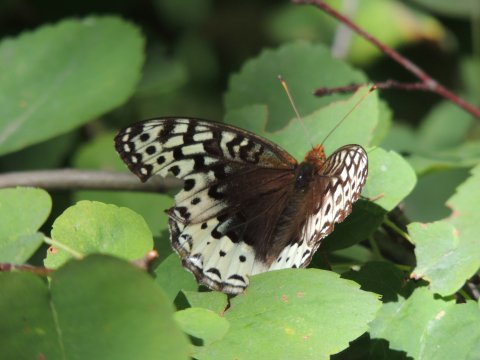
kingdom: Animalia
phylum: Arthropoda
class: Insecta
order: Lepidoptera
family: Nymphalidae
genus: Speyeria
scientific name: Speyeria cybele
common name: Great Spangled Fritillary
